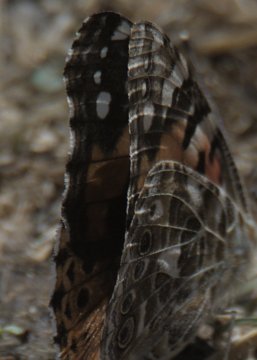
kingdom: Animalia
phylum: Arthropoda
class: Insecta
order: Lepidoptera
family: Nymphalidae
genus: Vanessa
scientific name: Vanessa cardui
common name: Painted Lady
